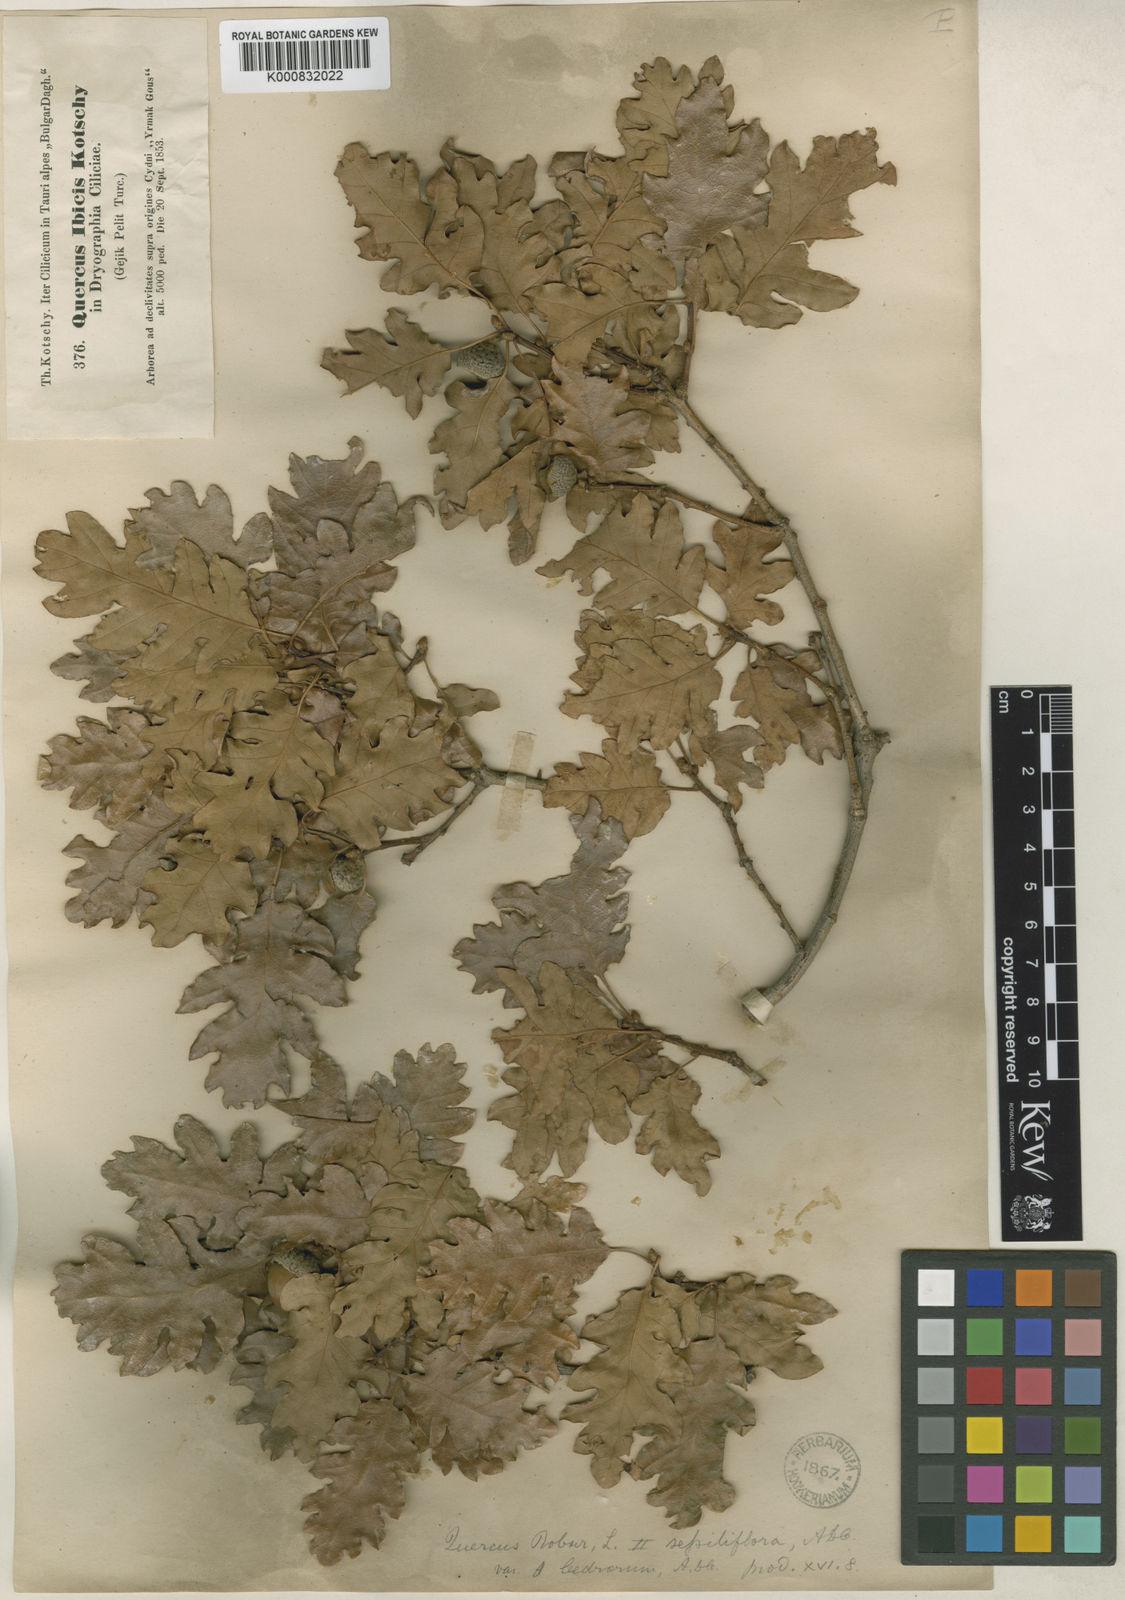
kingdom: Plantae
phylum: Tracheophyta
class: Magnoliopsida
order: Fagales
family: Fagaceae
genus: Quercus
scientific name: Quercus petraea
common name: Sessile oak
